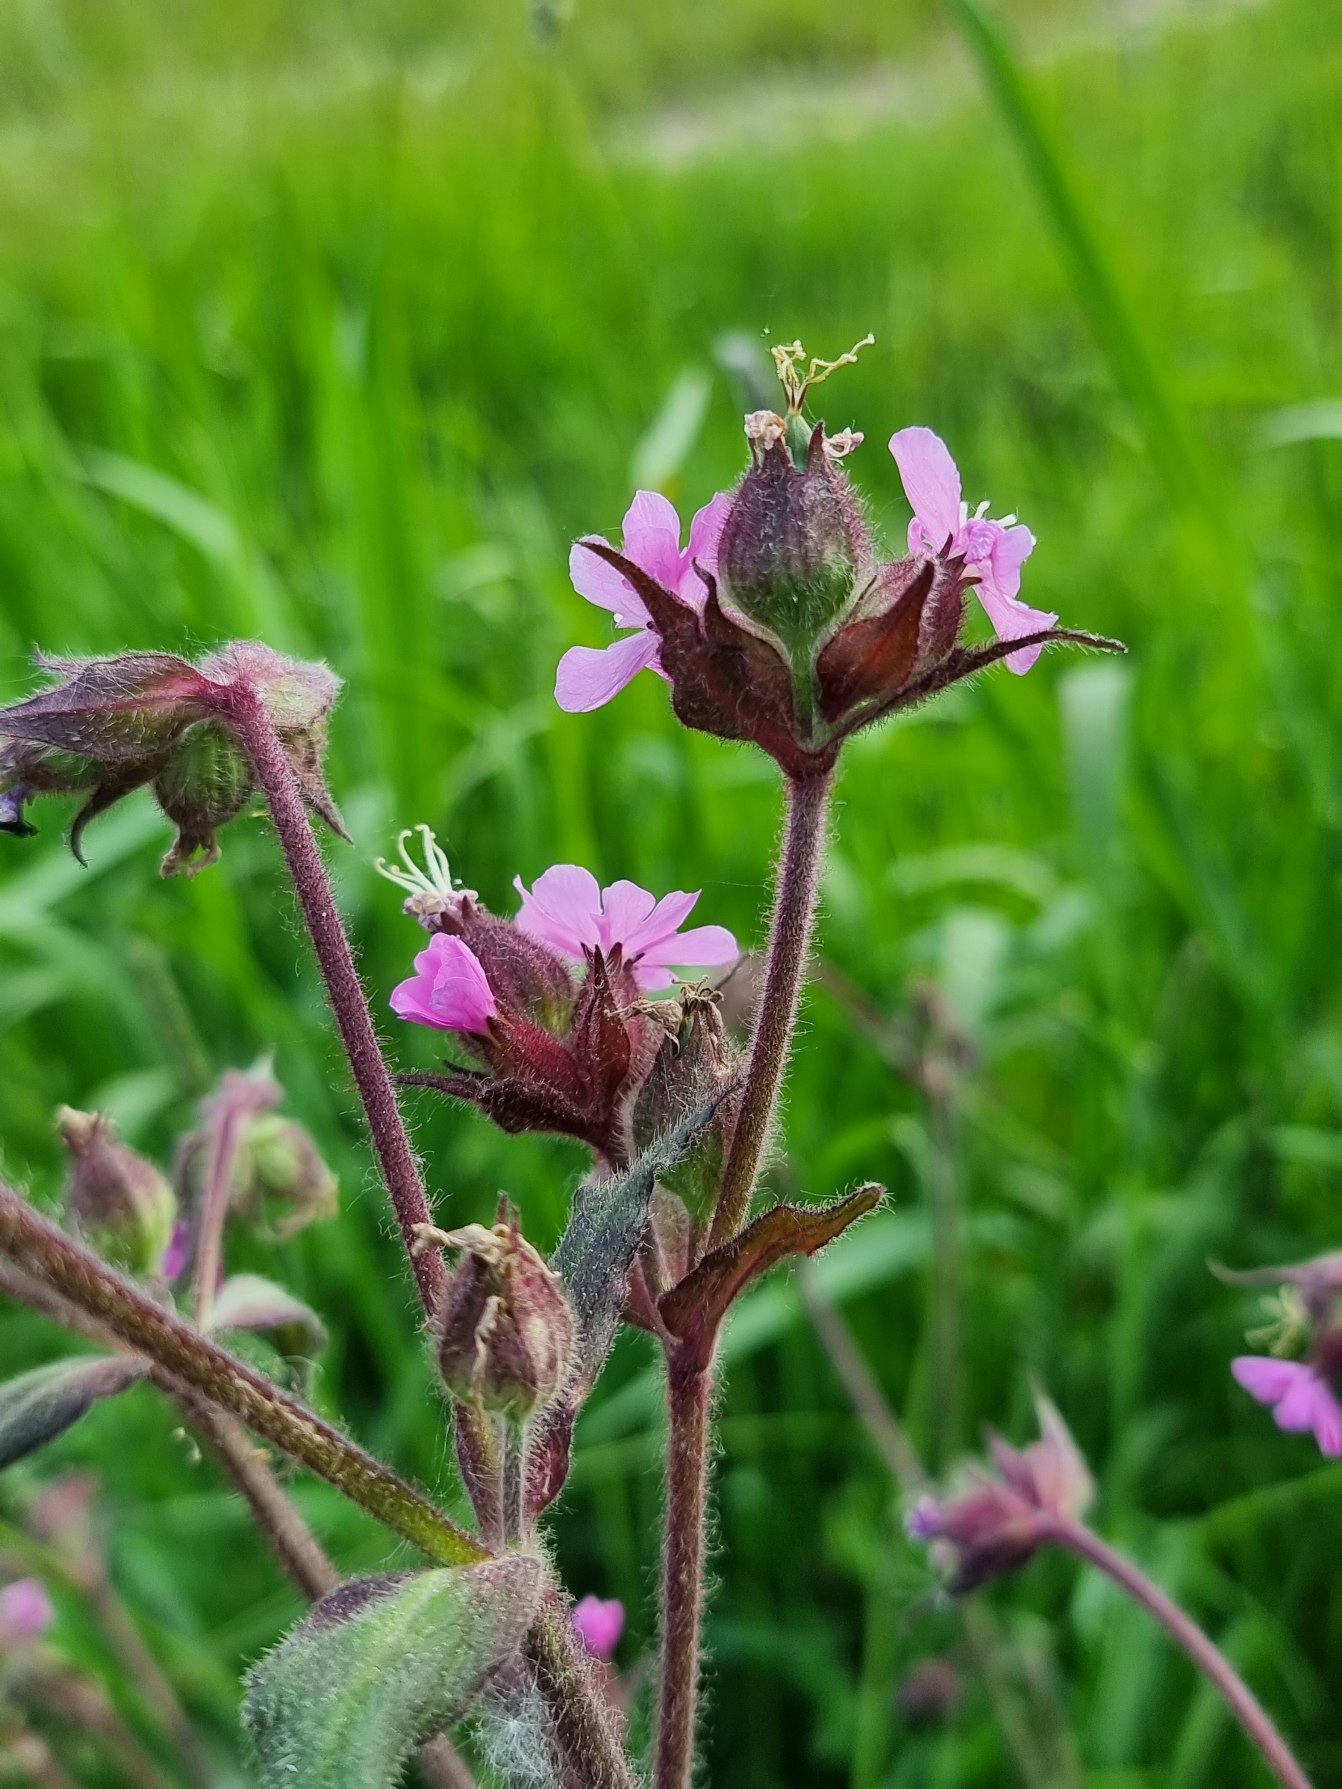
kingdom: Plantae
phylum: Tracheophyta
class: Magnoliopsida
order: Caryophyllales
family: Caryophyllaceae
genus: Silene
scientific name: Silene dioica
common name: Dagpragtstjerne
